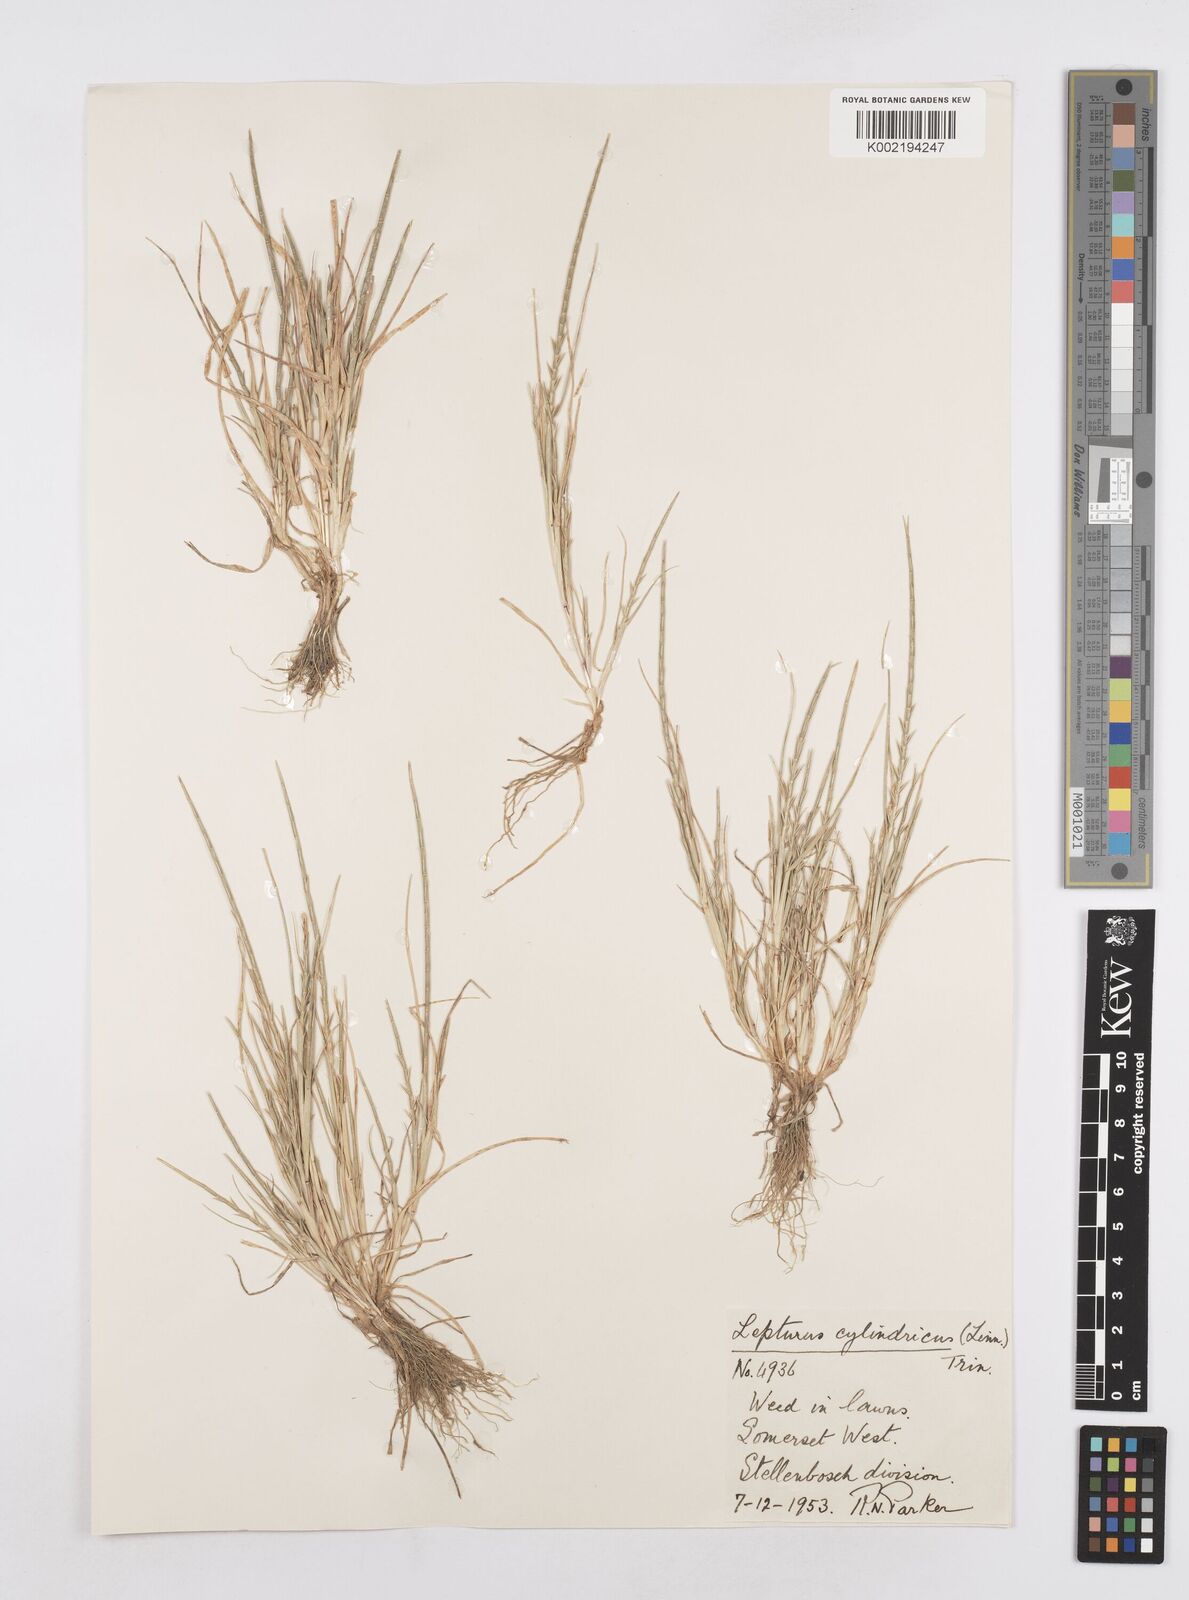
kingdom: Plantae
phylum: Tracheophyta
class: Liliopsida
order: Poales
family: Poaceae
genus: Parapholis
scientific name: Parapholis cylindrica
